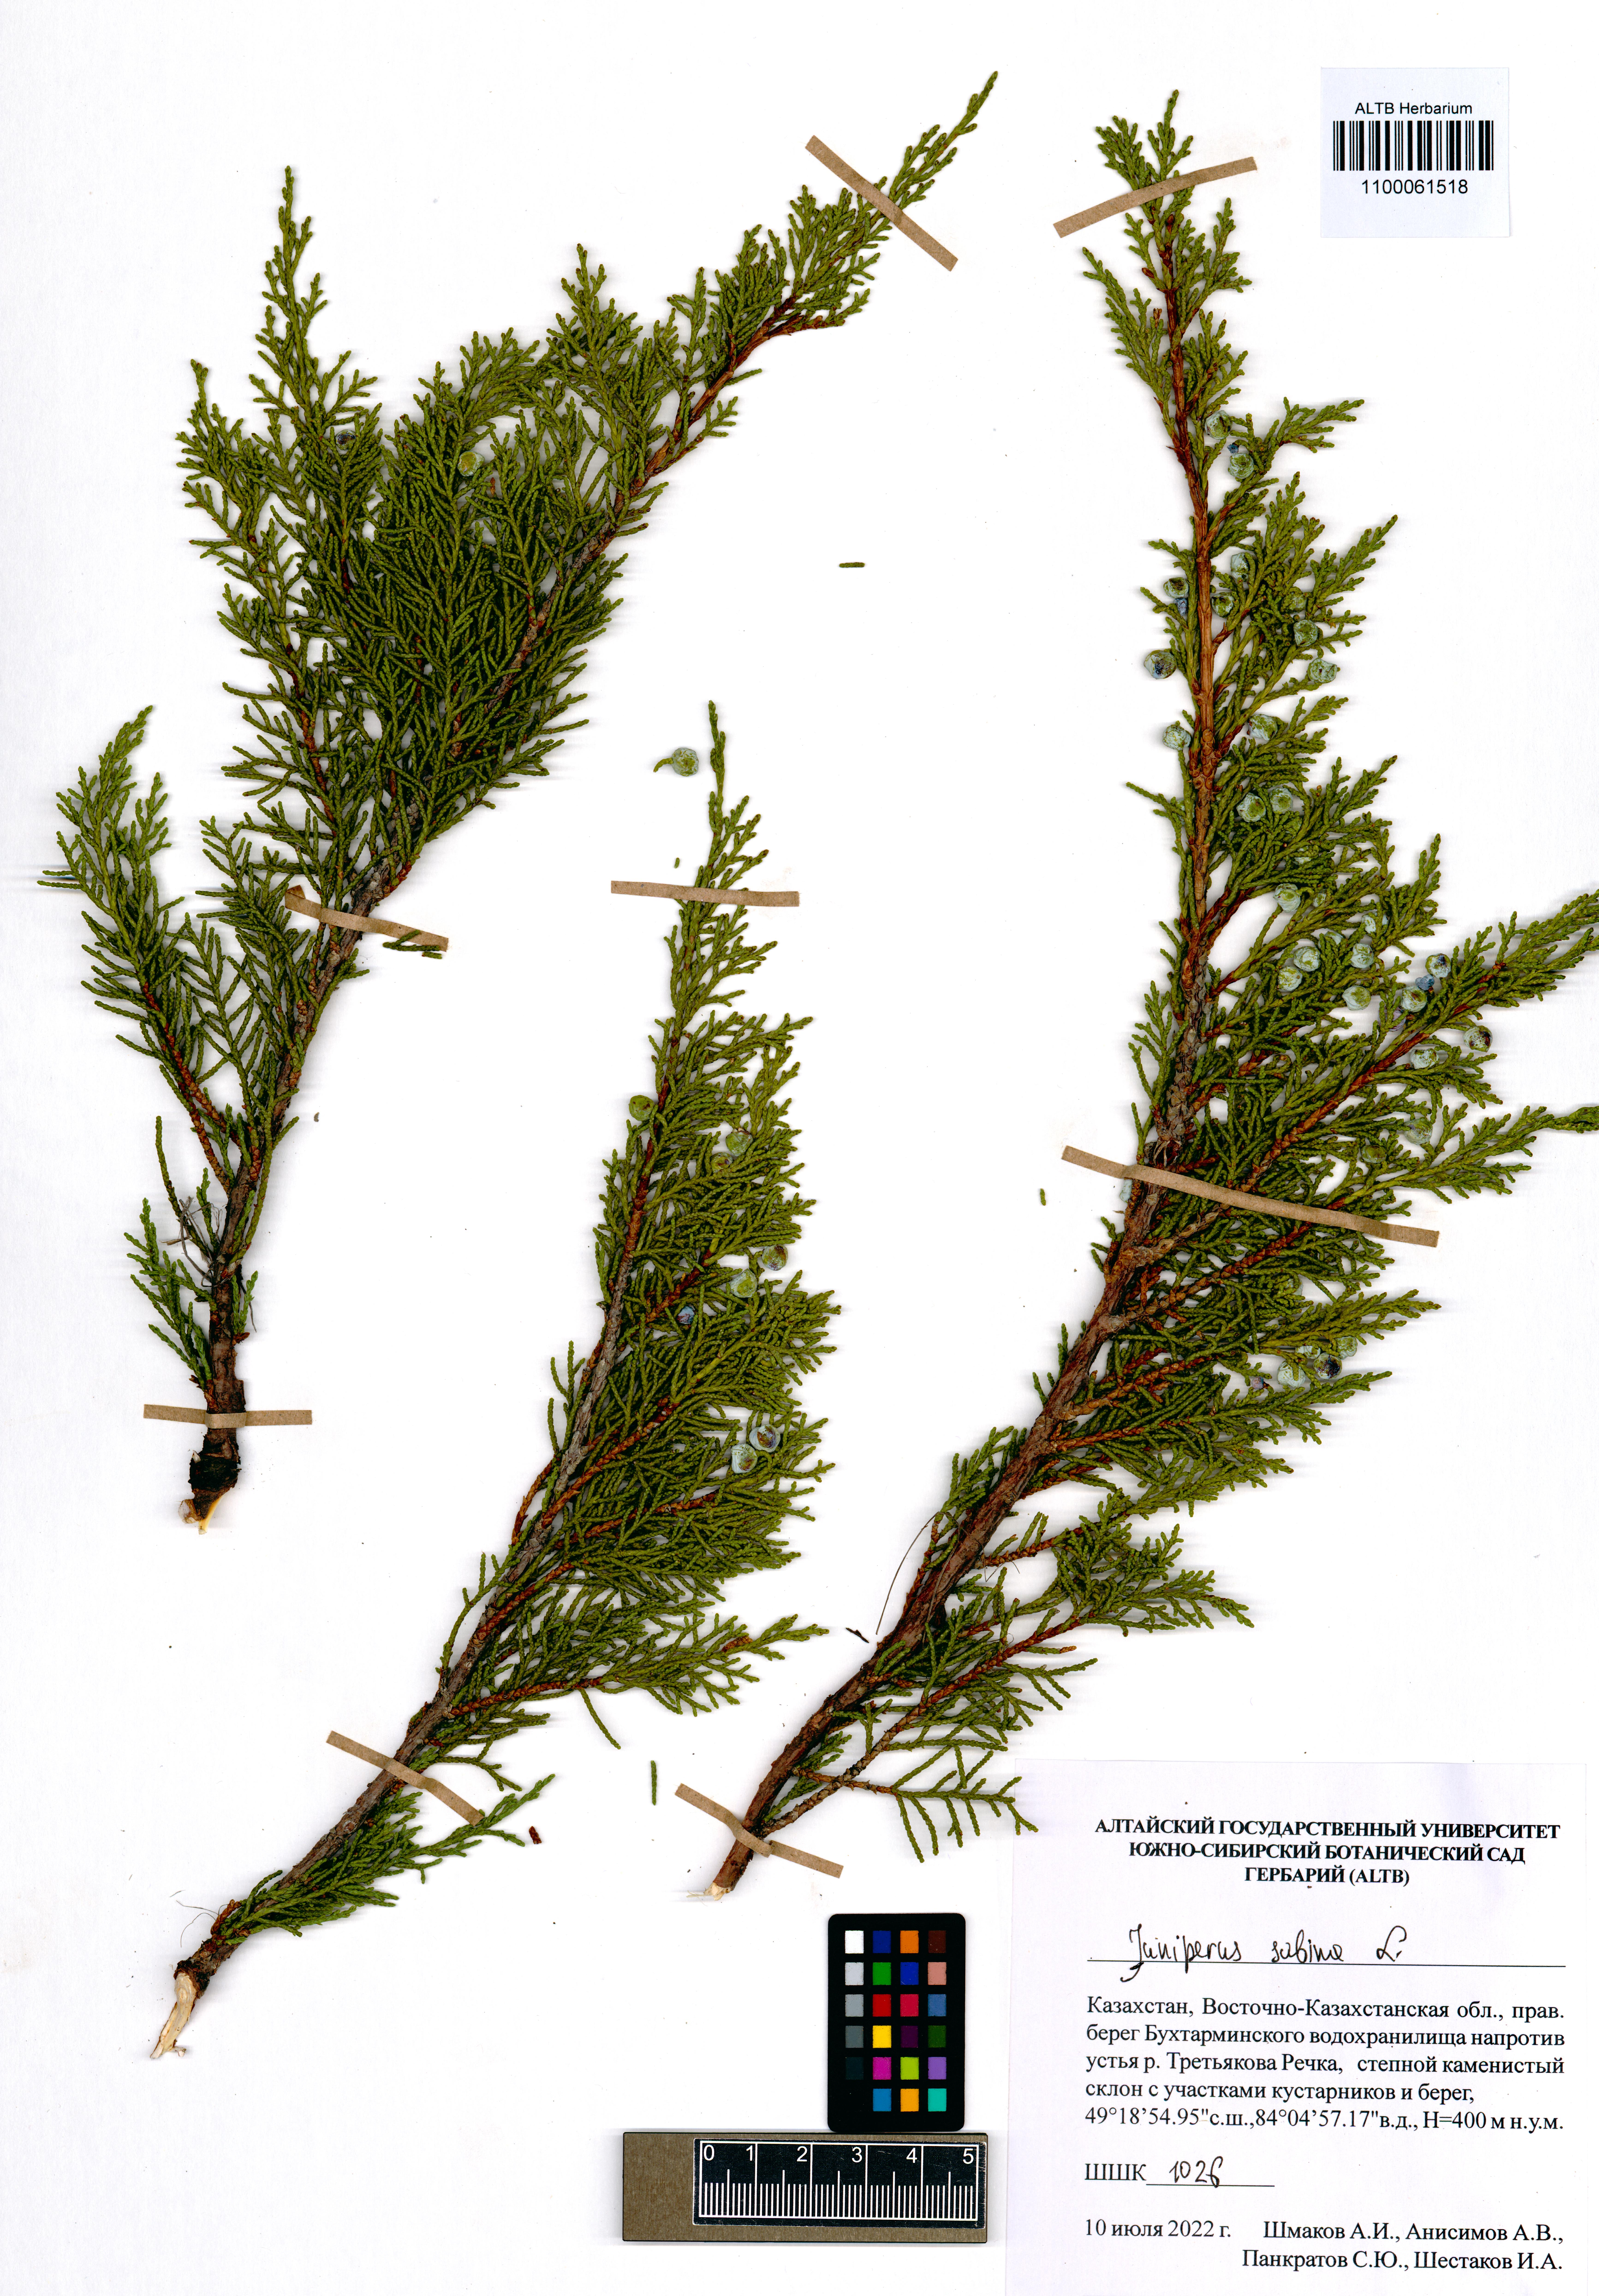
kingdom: Plantae
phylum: Tracheophyta
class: Pinopsida
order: Pinales
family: Cupressaceae
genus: Juniperus
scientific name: Juniperus sabina
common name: Savin
